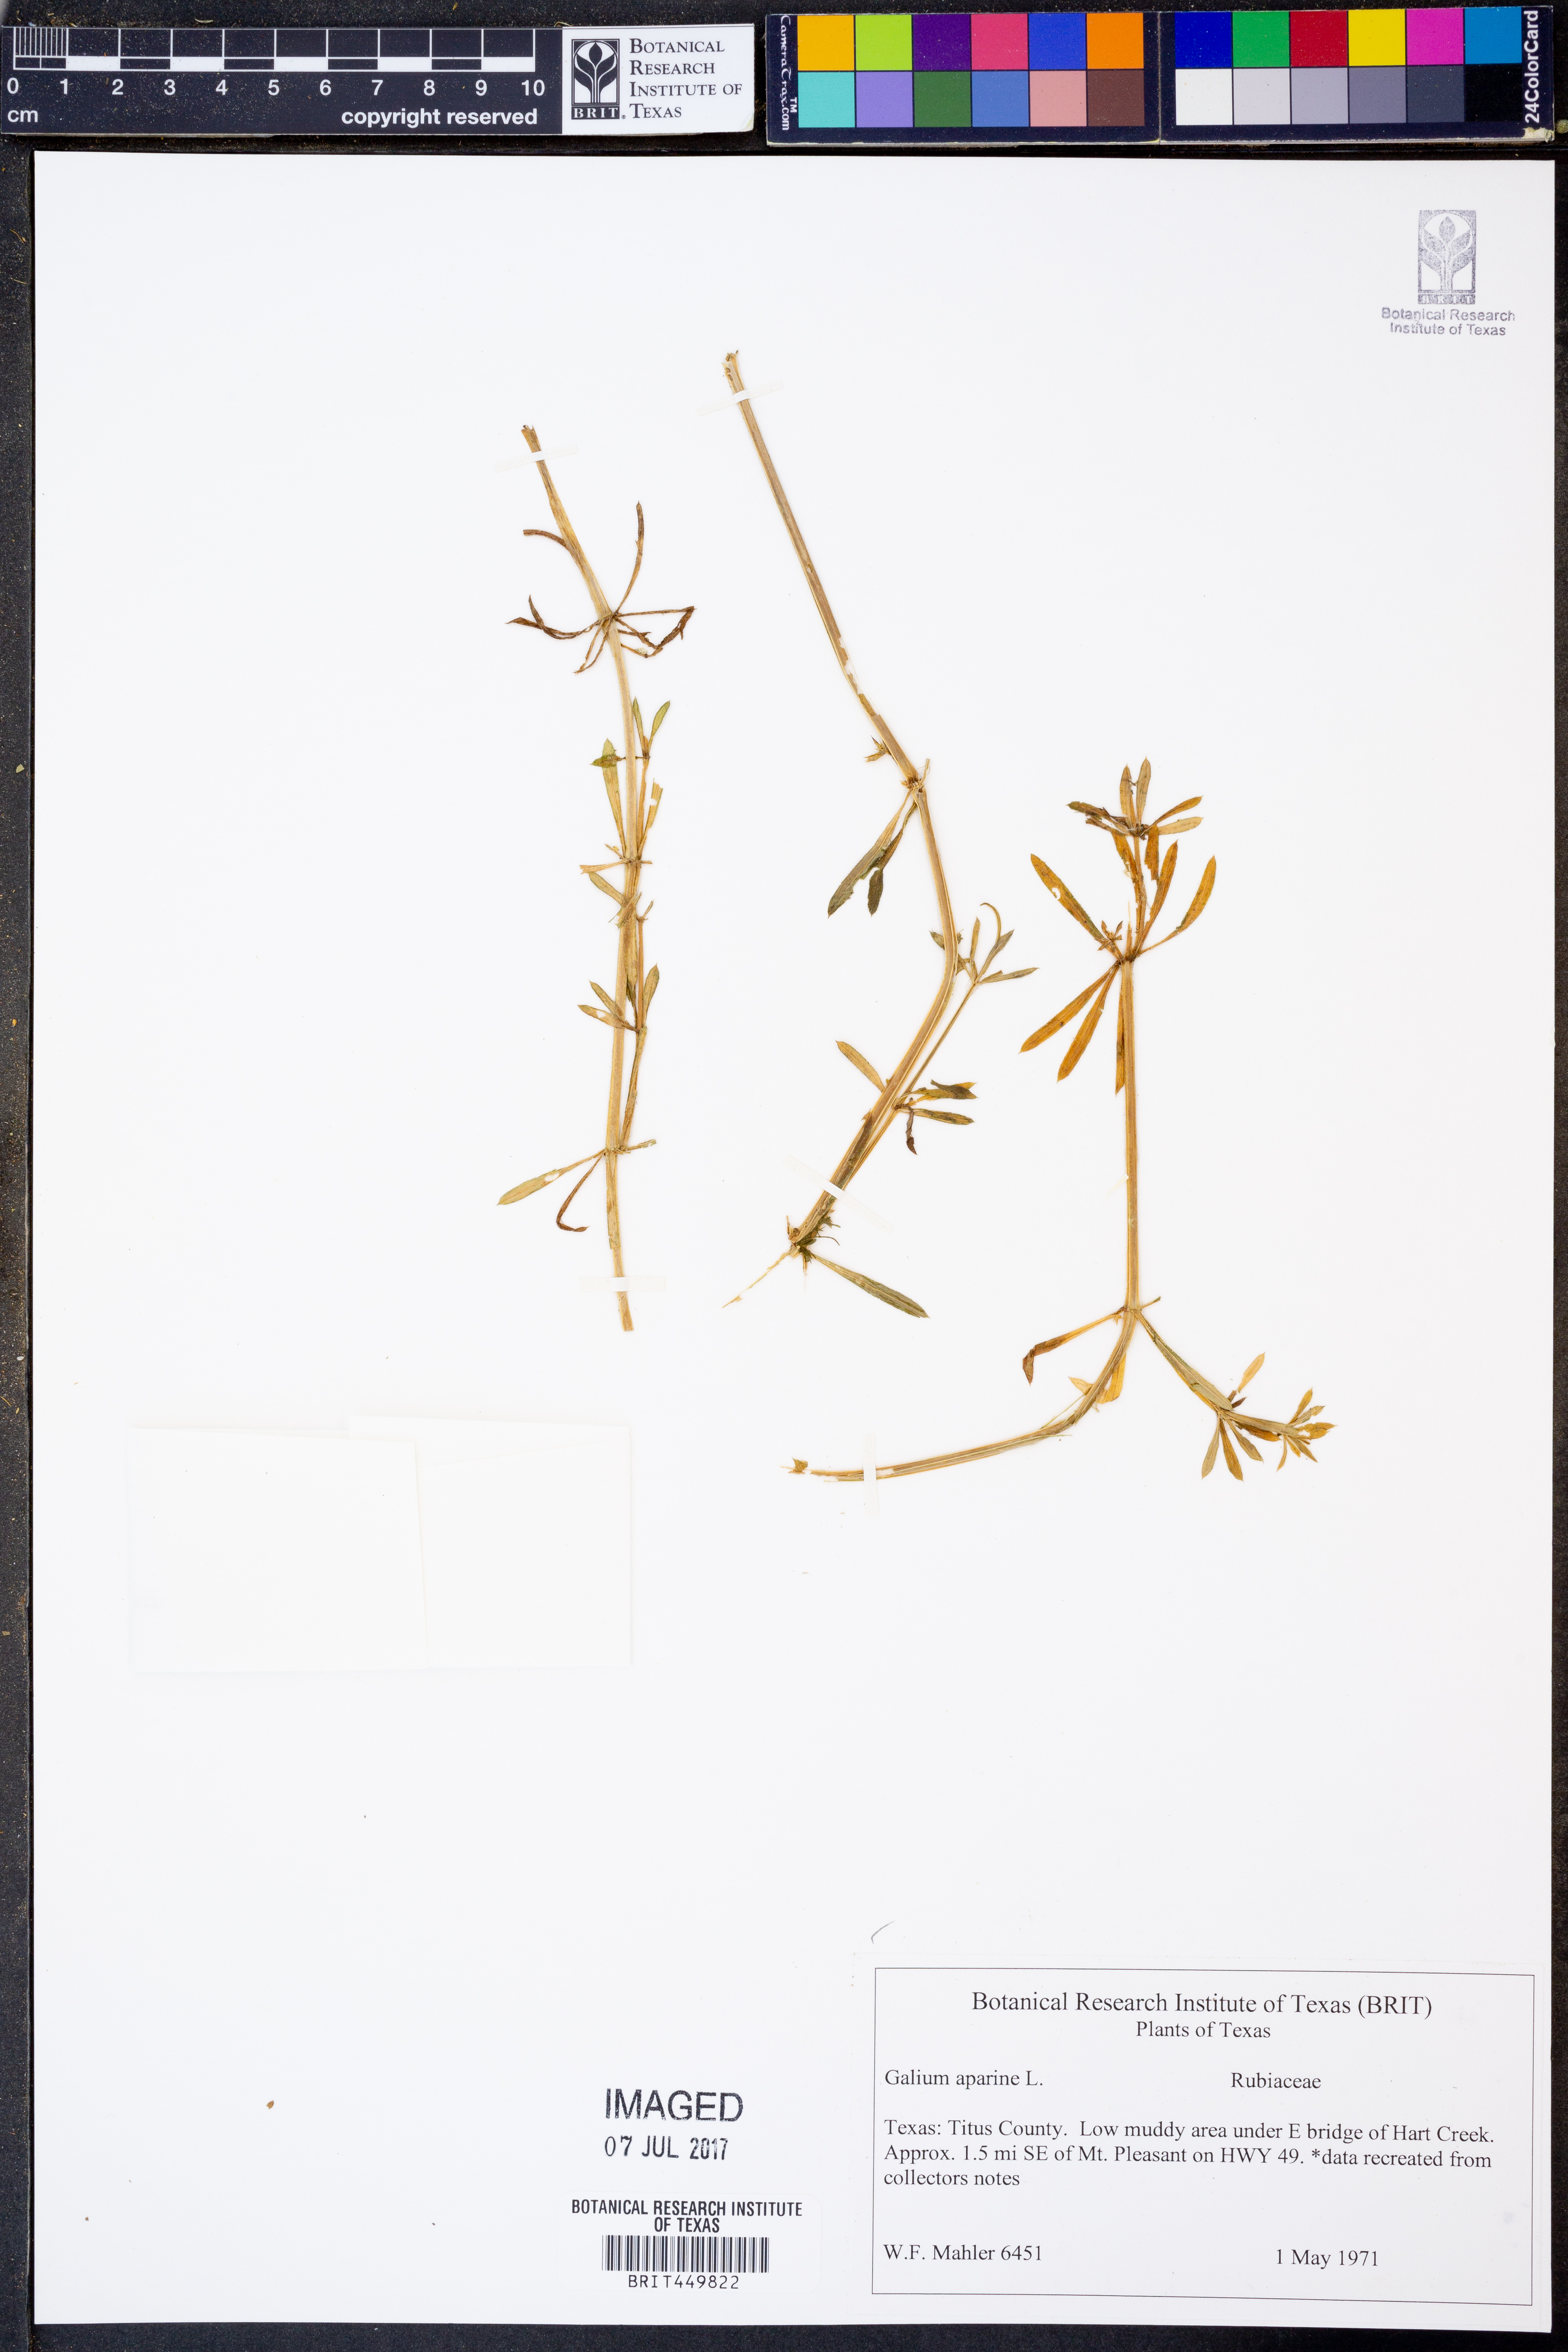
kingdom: Plantae
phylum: Tracheophyta
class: Magnoliopsida
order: Gentianales
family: Rubiaceae
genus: Galium
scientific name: Galium aparine
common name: Cleavers
